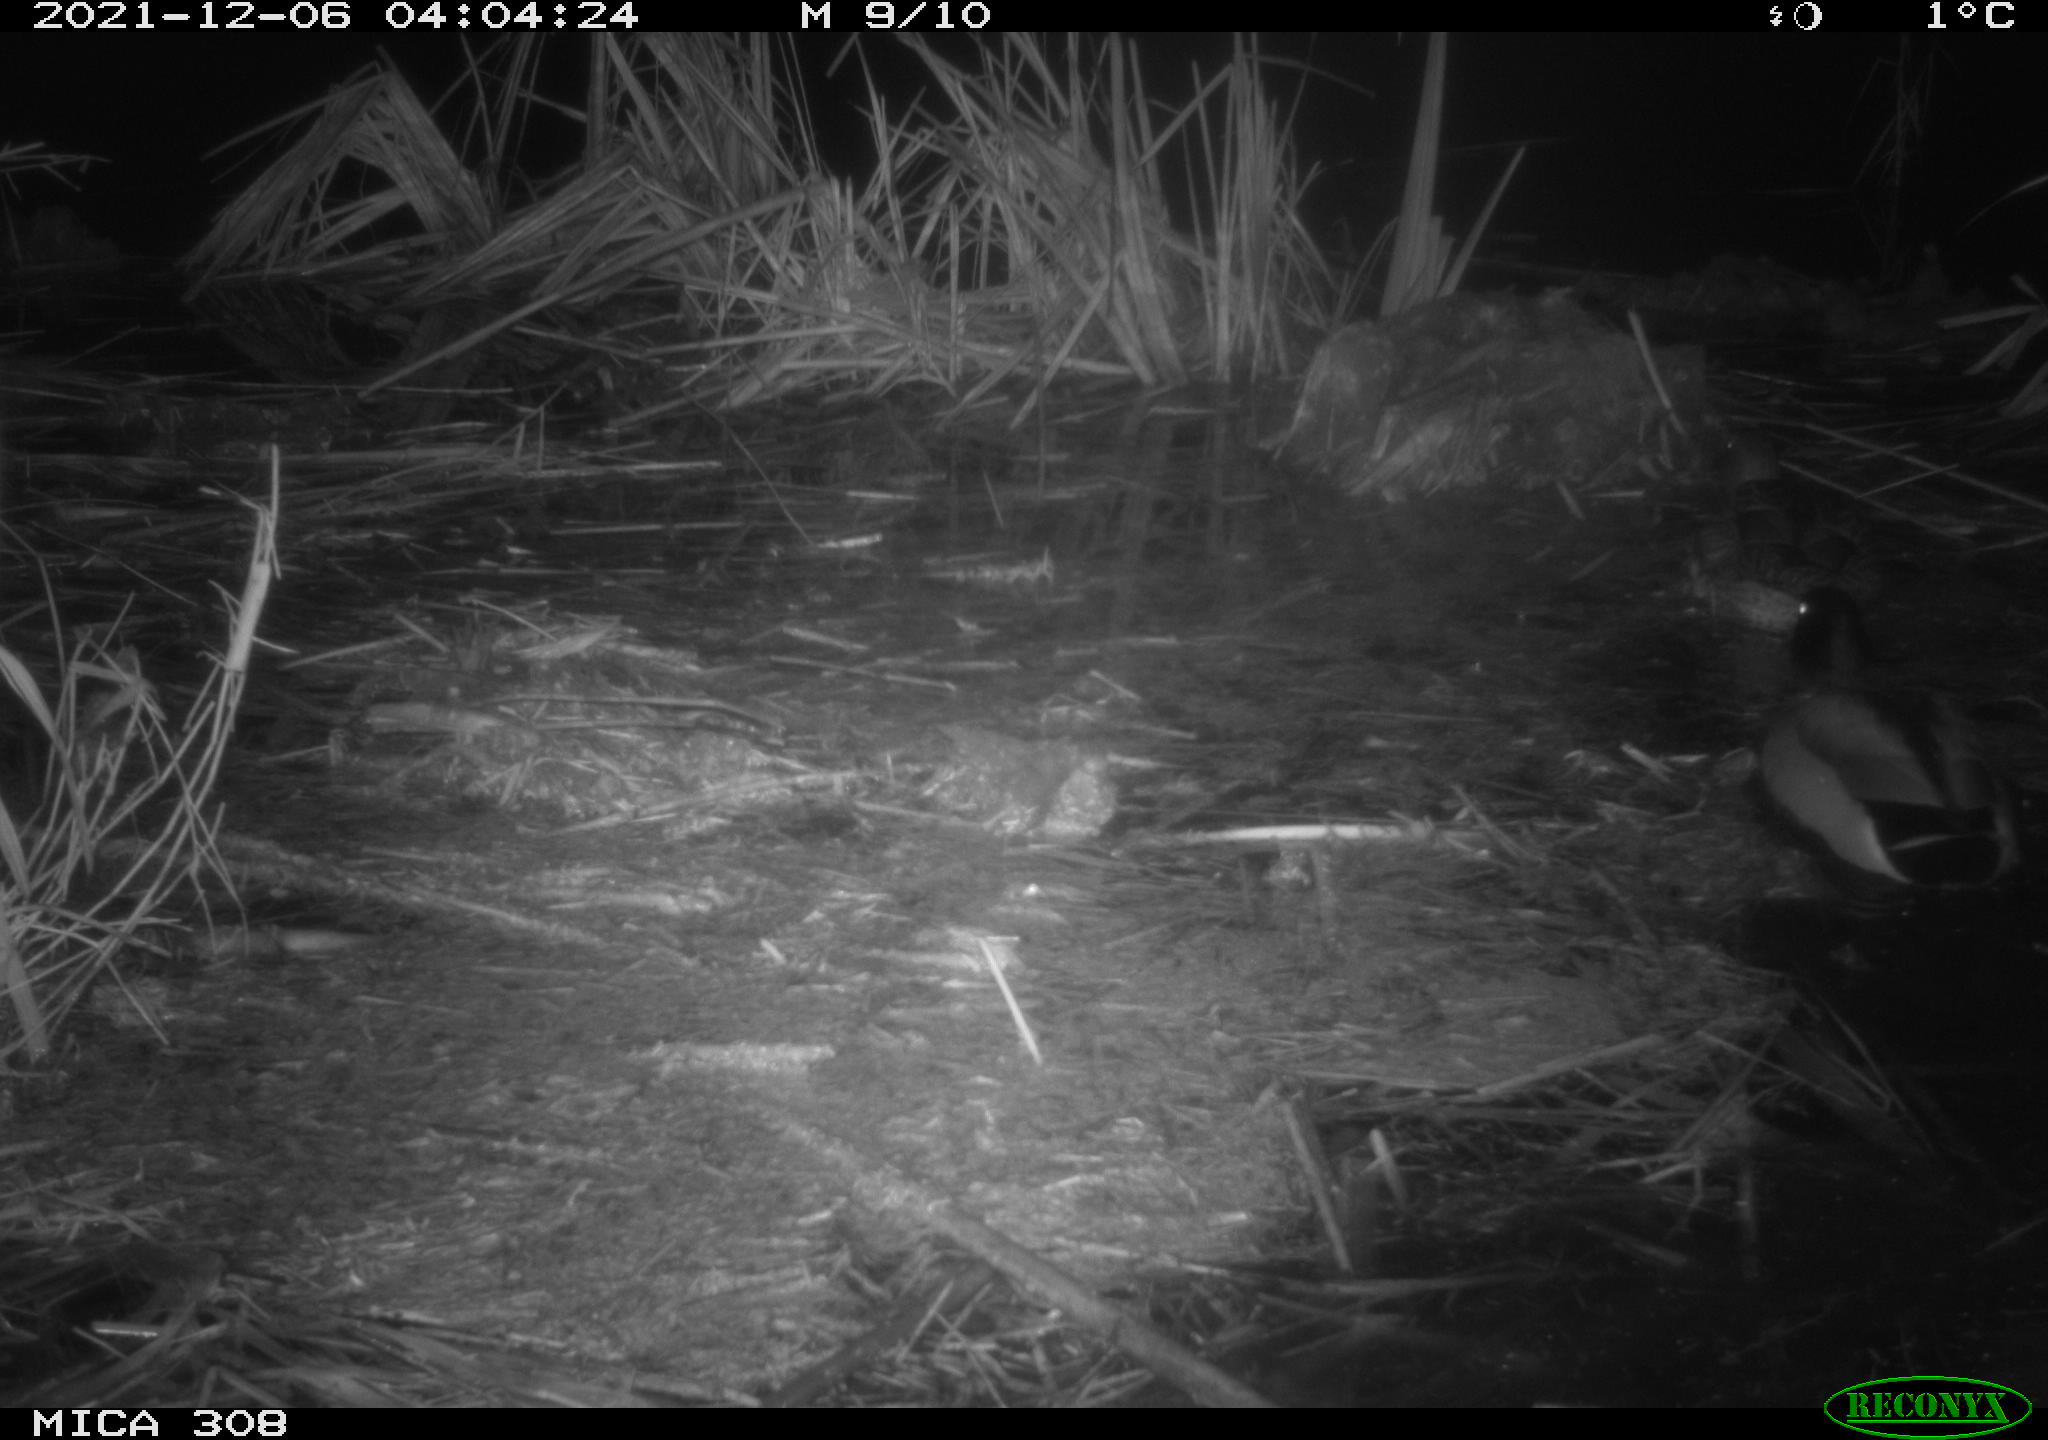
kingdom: Animalia
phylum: Chordata
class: Aves
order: Anseriformes
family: Anatidae
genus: Anas
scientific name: Anas platyrhynchos
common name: Mallard
